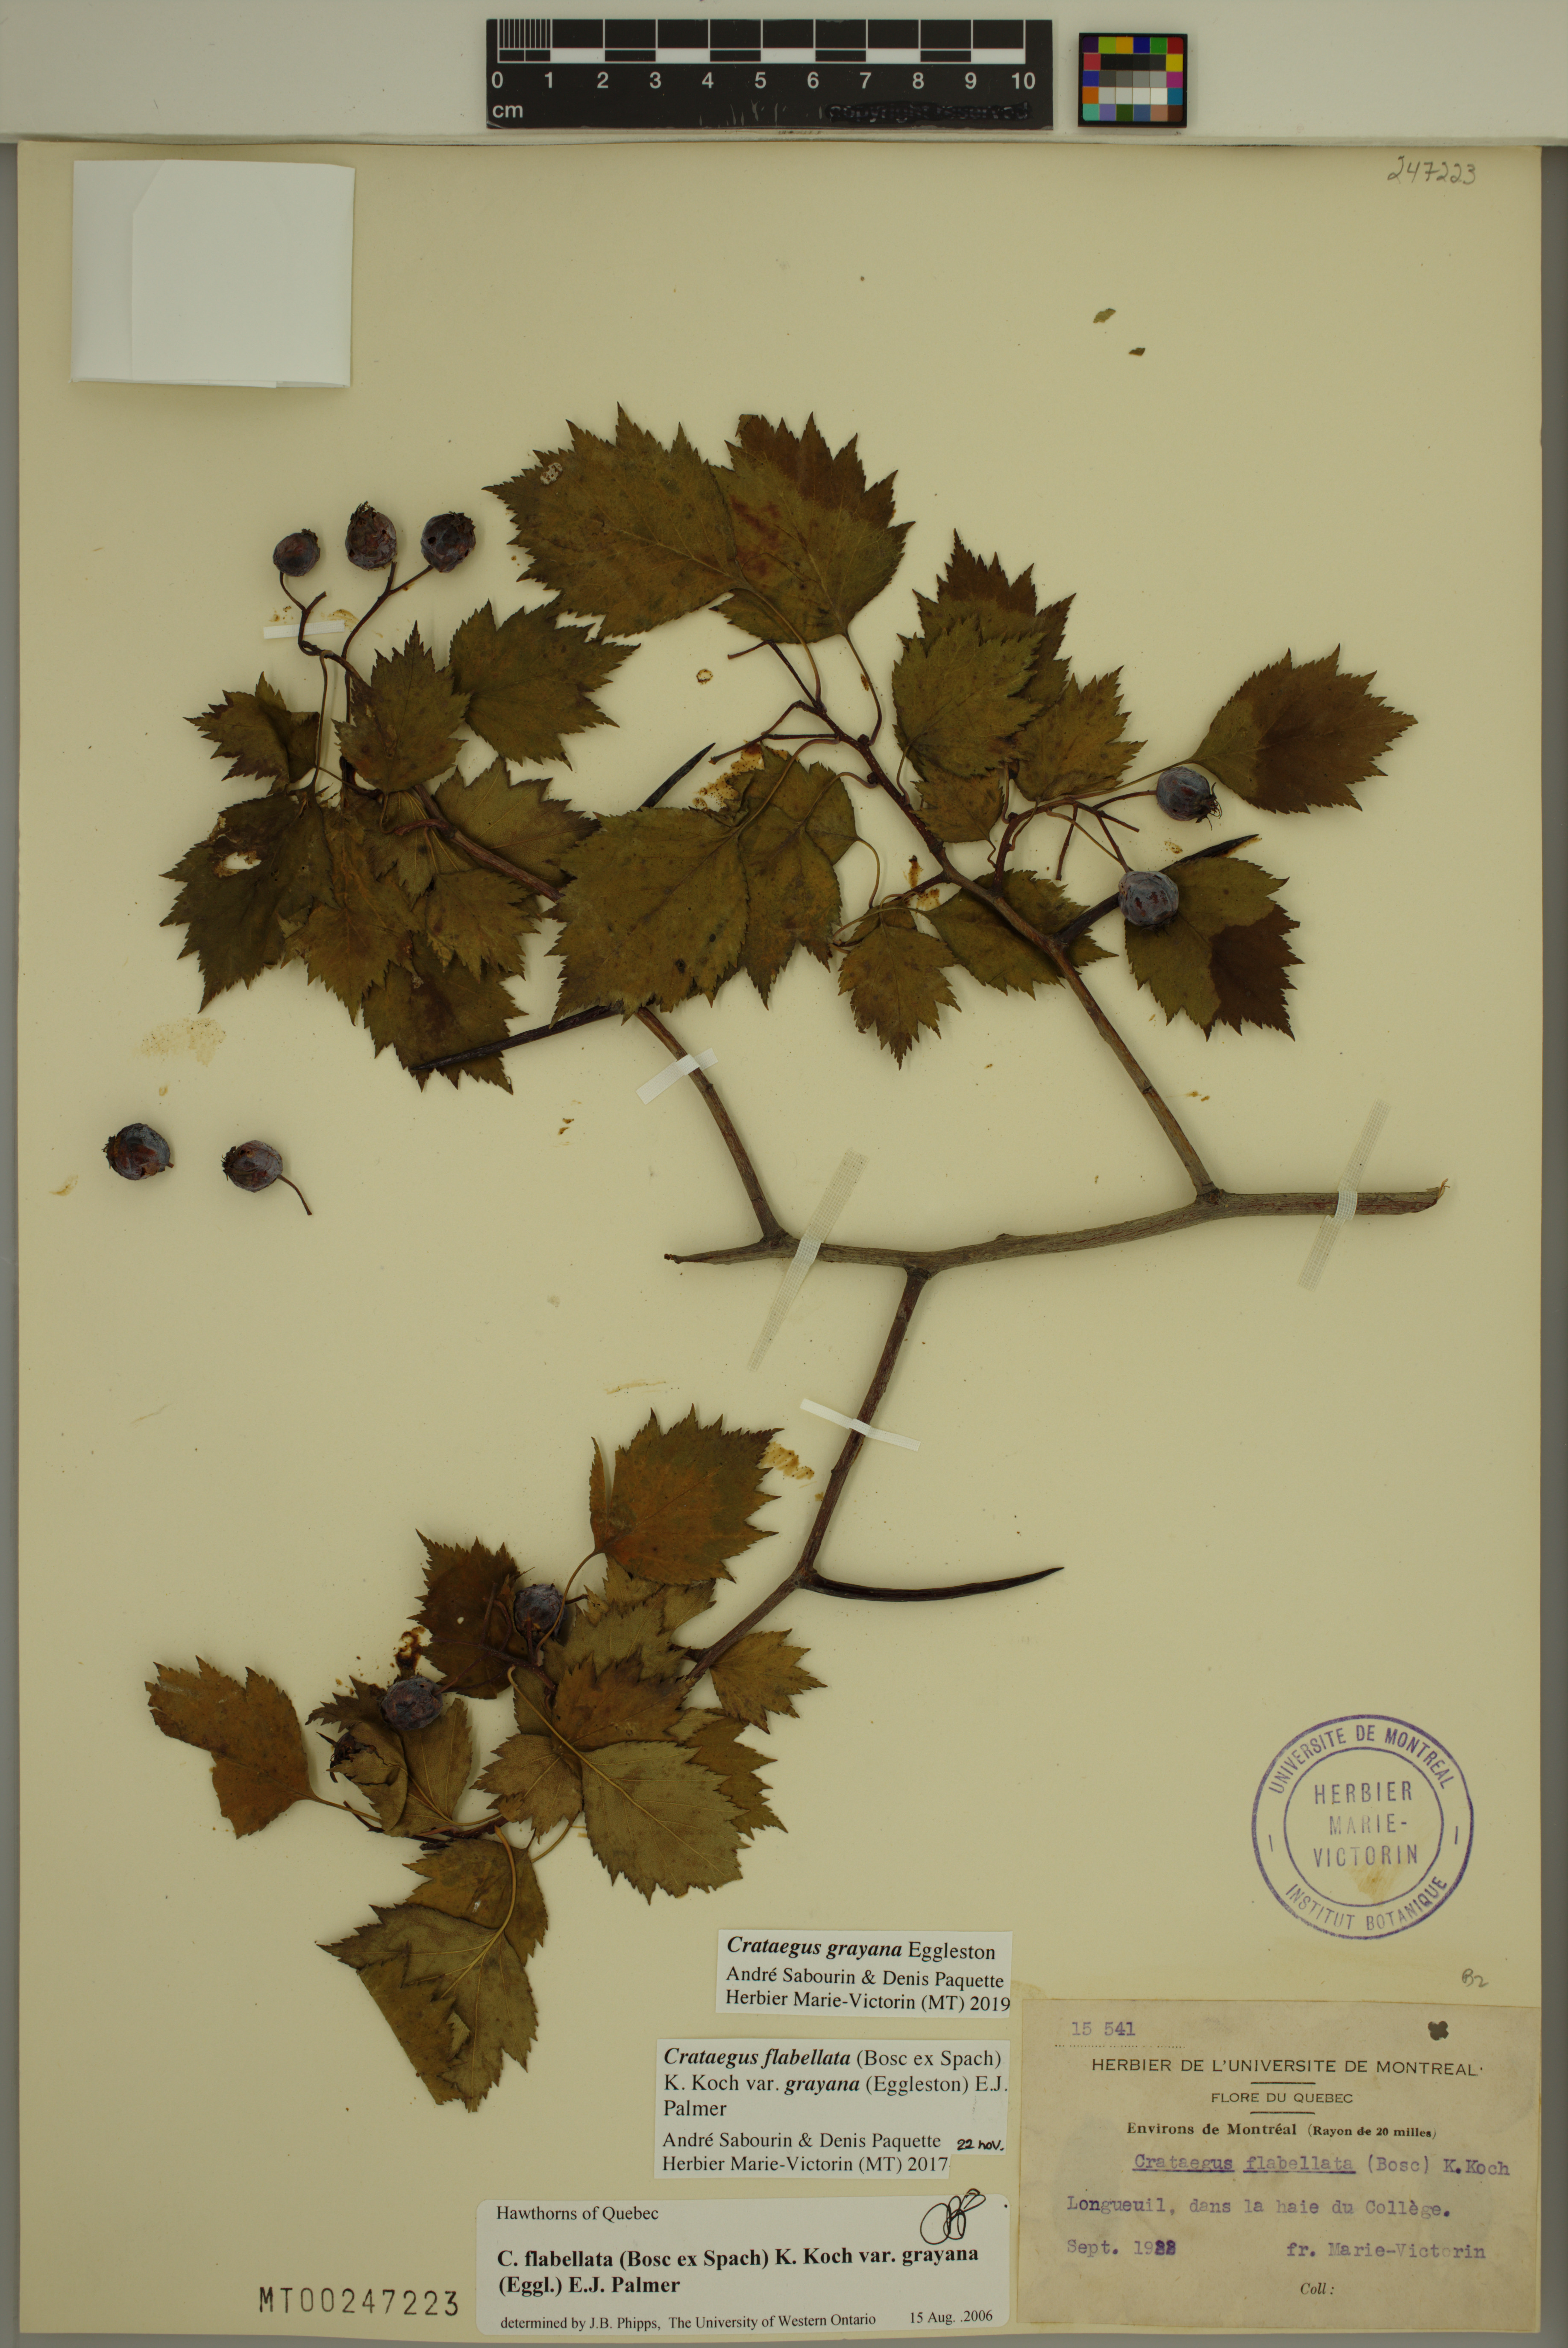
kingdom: Plantae
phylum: Tracheophyta
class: Magnoliopsida
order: Rosales
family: Rosaceae
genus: Crataegus
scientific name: Crataegus schuettei
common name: Schuette's hawthorn
